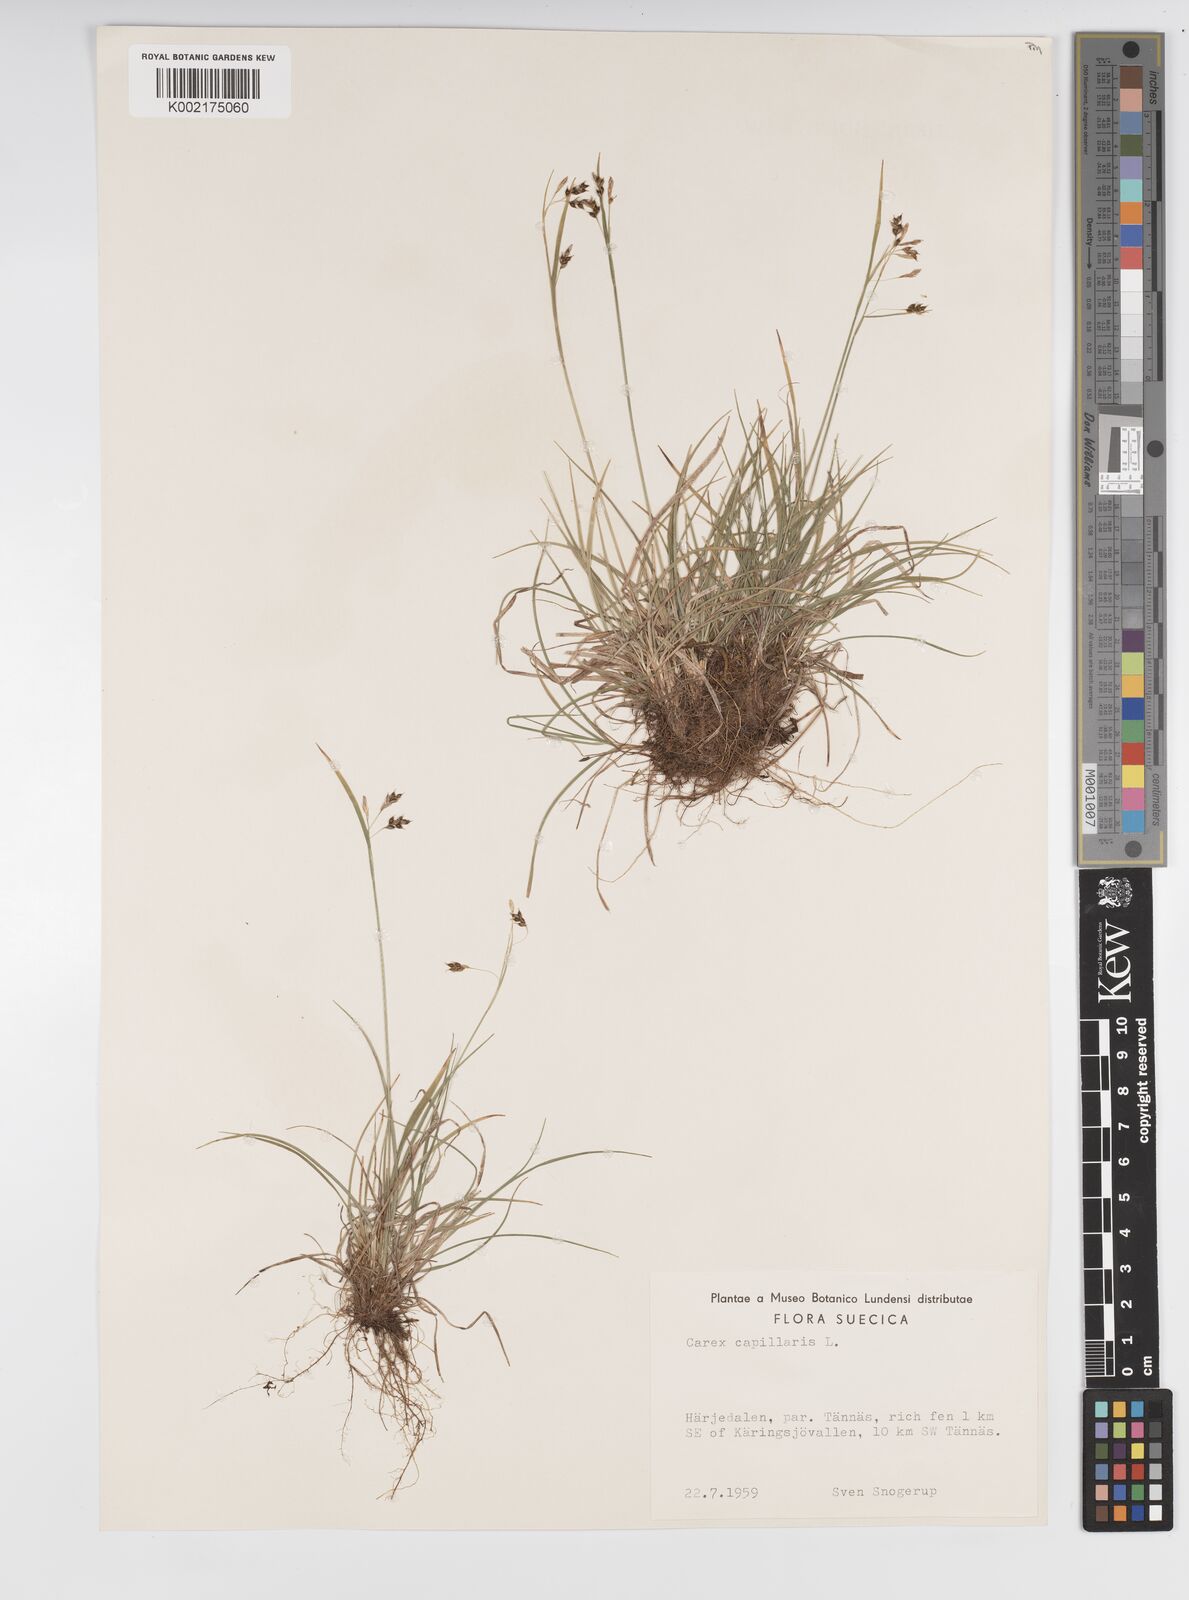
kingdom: Plantae
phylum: Tracheophyta
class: Liliopsida
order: Poales
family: Cyperaceae
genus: Carex
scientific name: Carex capillaris
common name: Hair sedge
